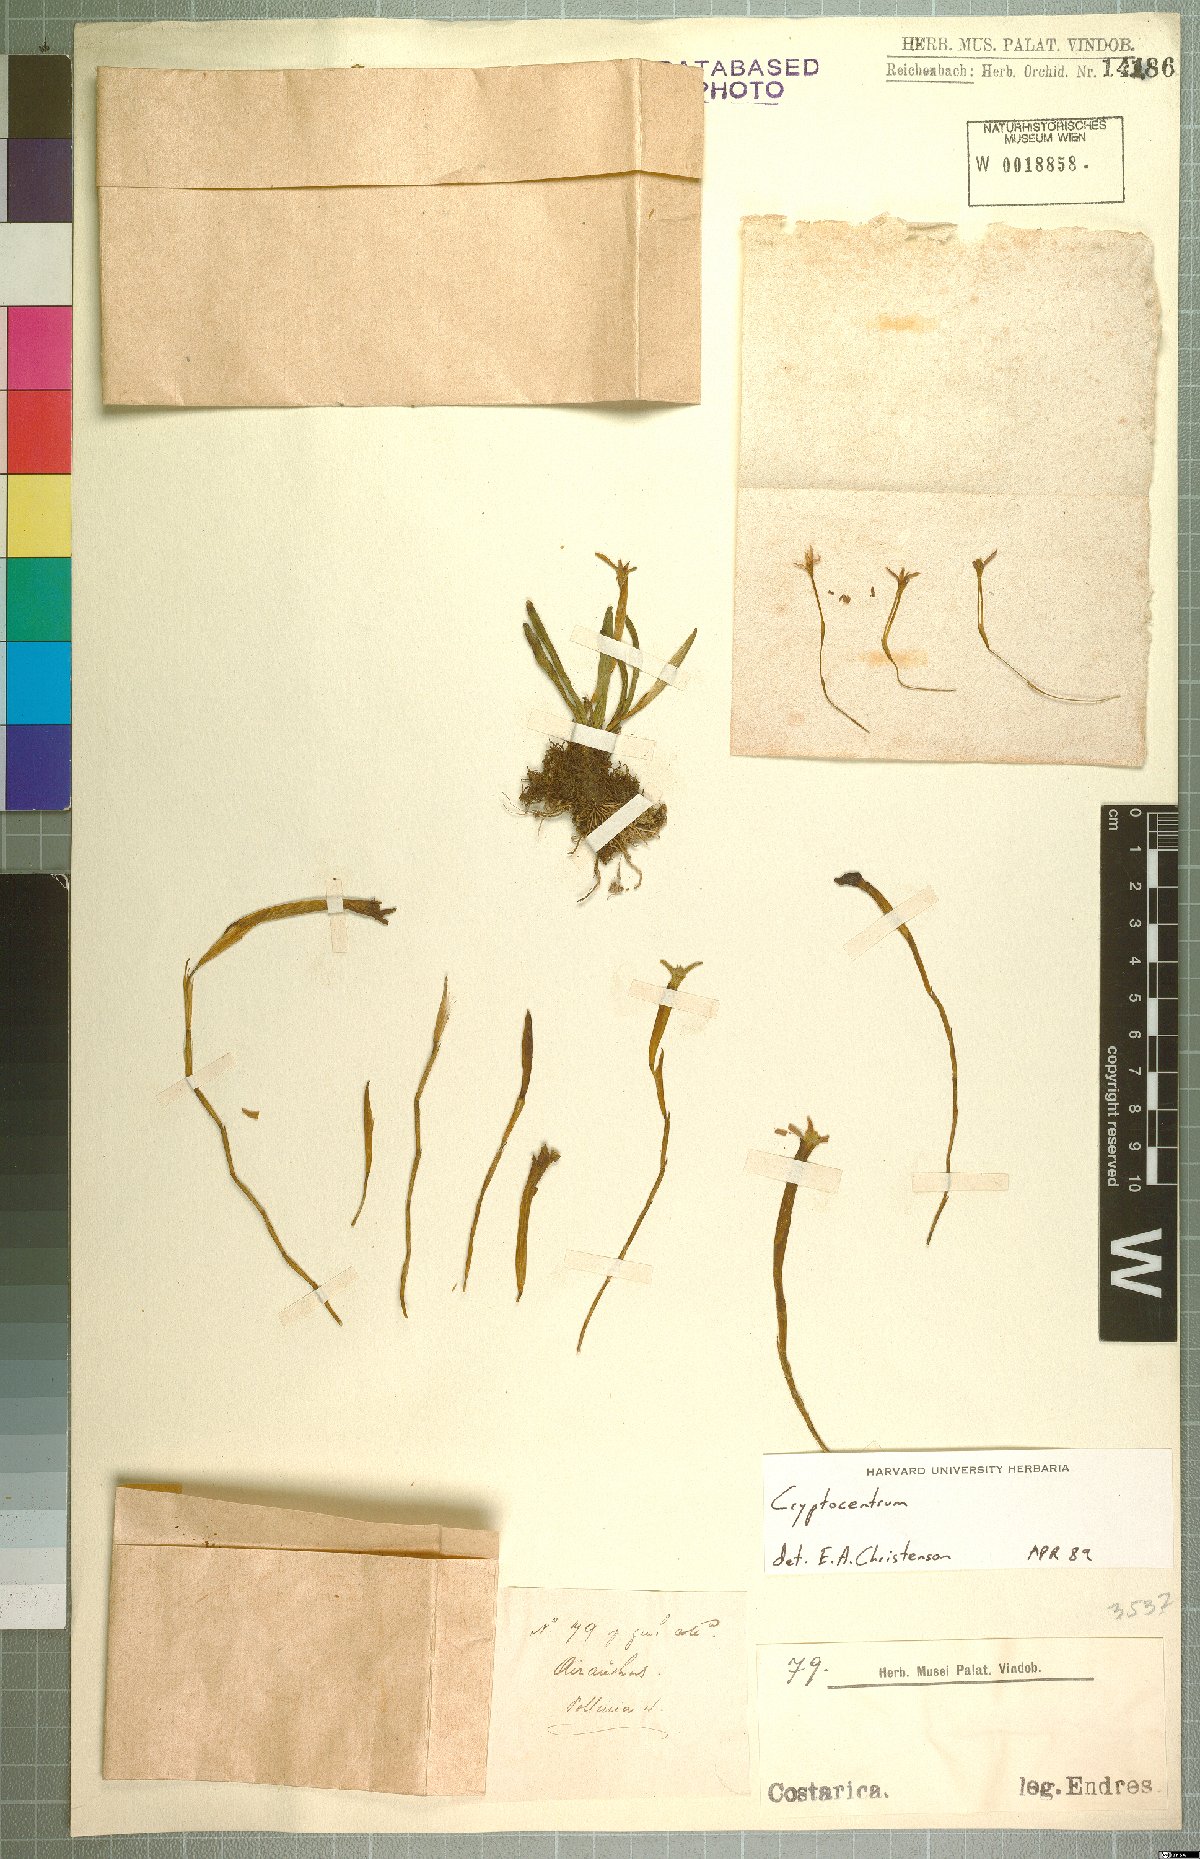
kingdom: Plantae
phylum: Tracheophyta
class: Liliopsida
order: Asparagales
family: Orchidaceae
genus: Maxillaria
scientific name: Maxillaria calcarata
